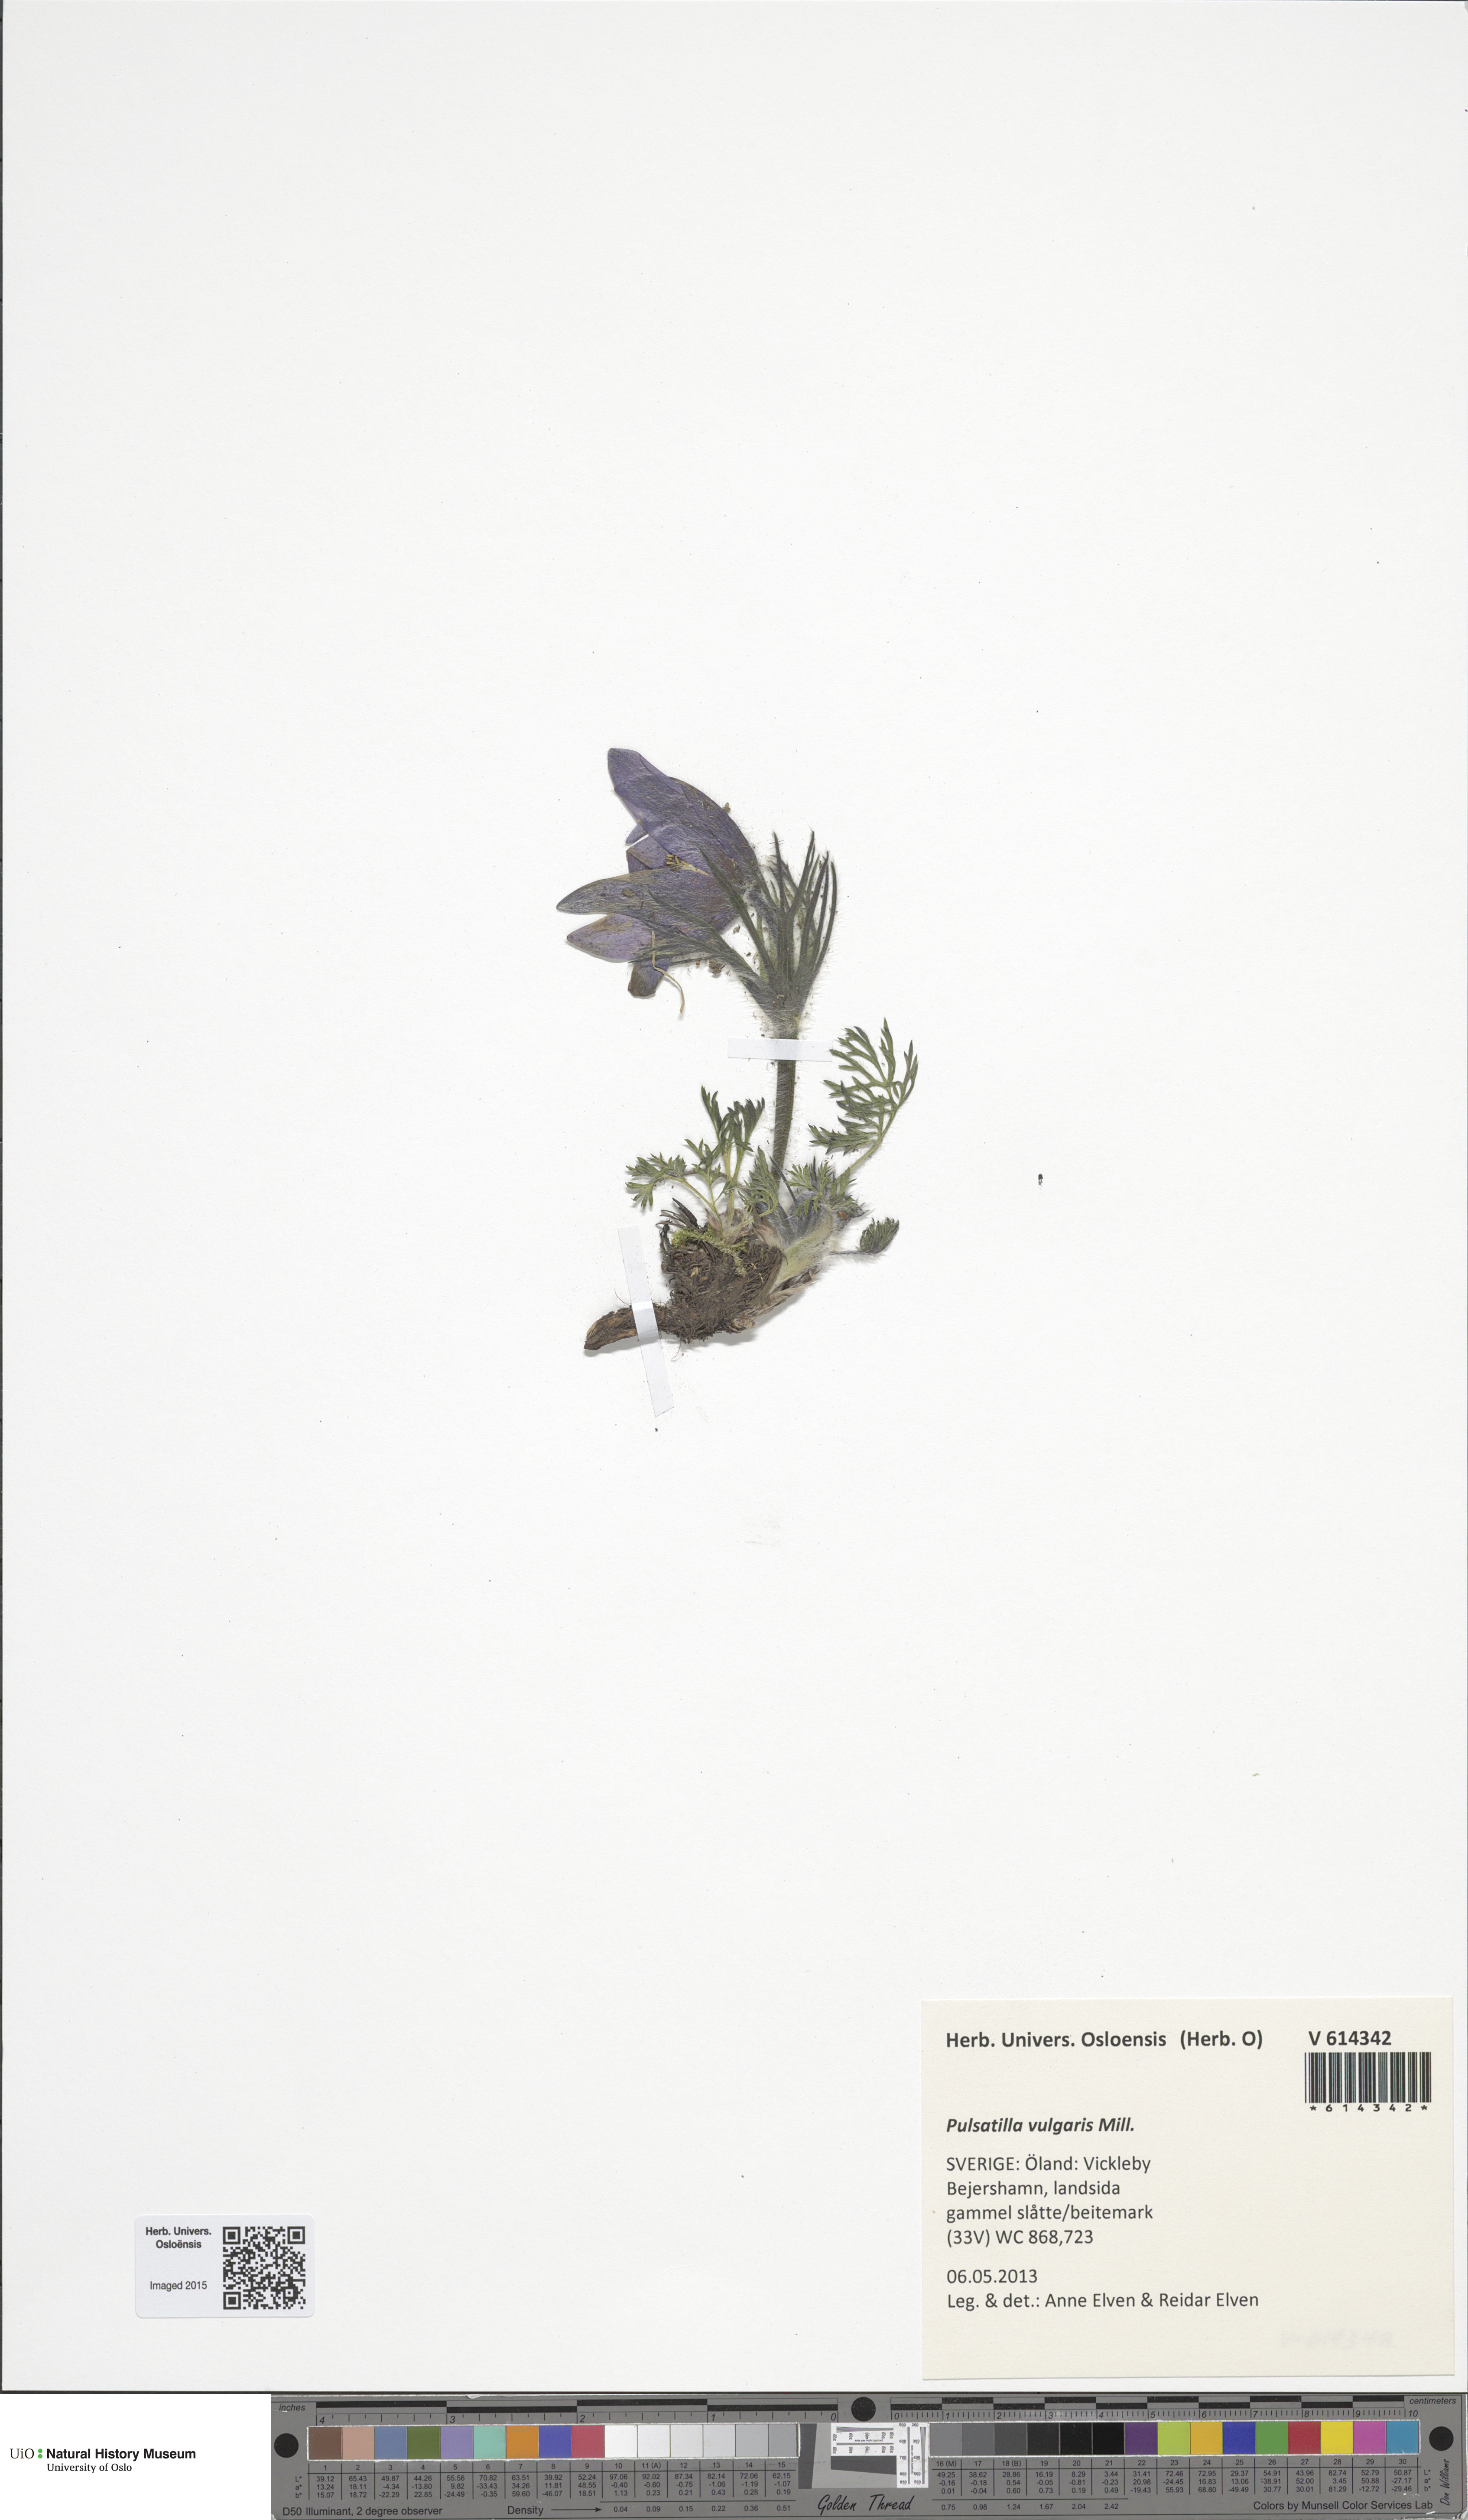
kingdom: Plantae
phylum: Tracheophyta
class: Magnoliopsida
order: Ranunculales
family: Ranunculaceae
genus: Pulsatilla
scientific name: Pulsatilla vulgaris
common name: Pasqueflower
